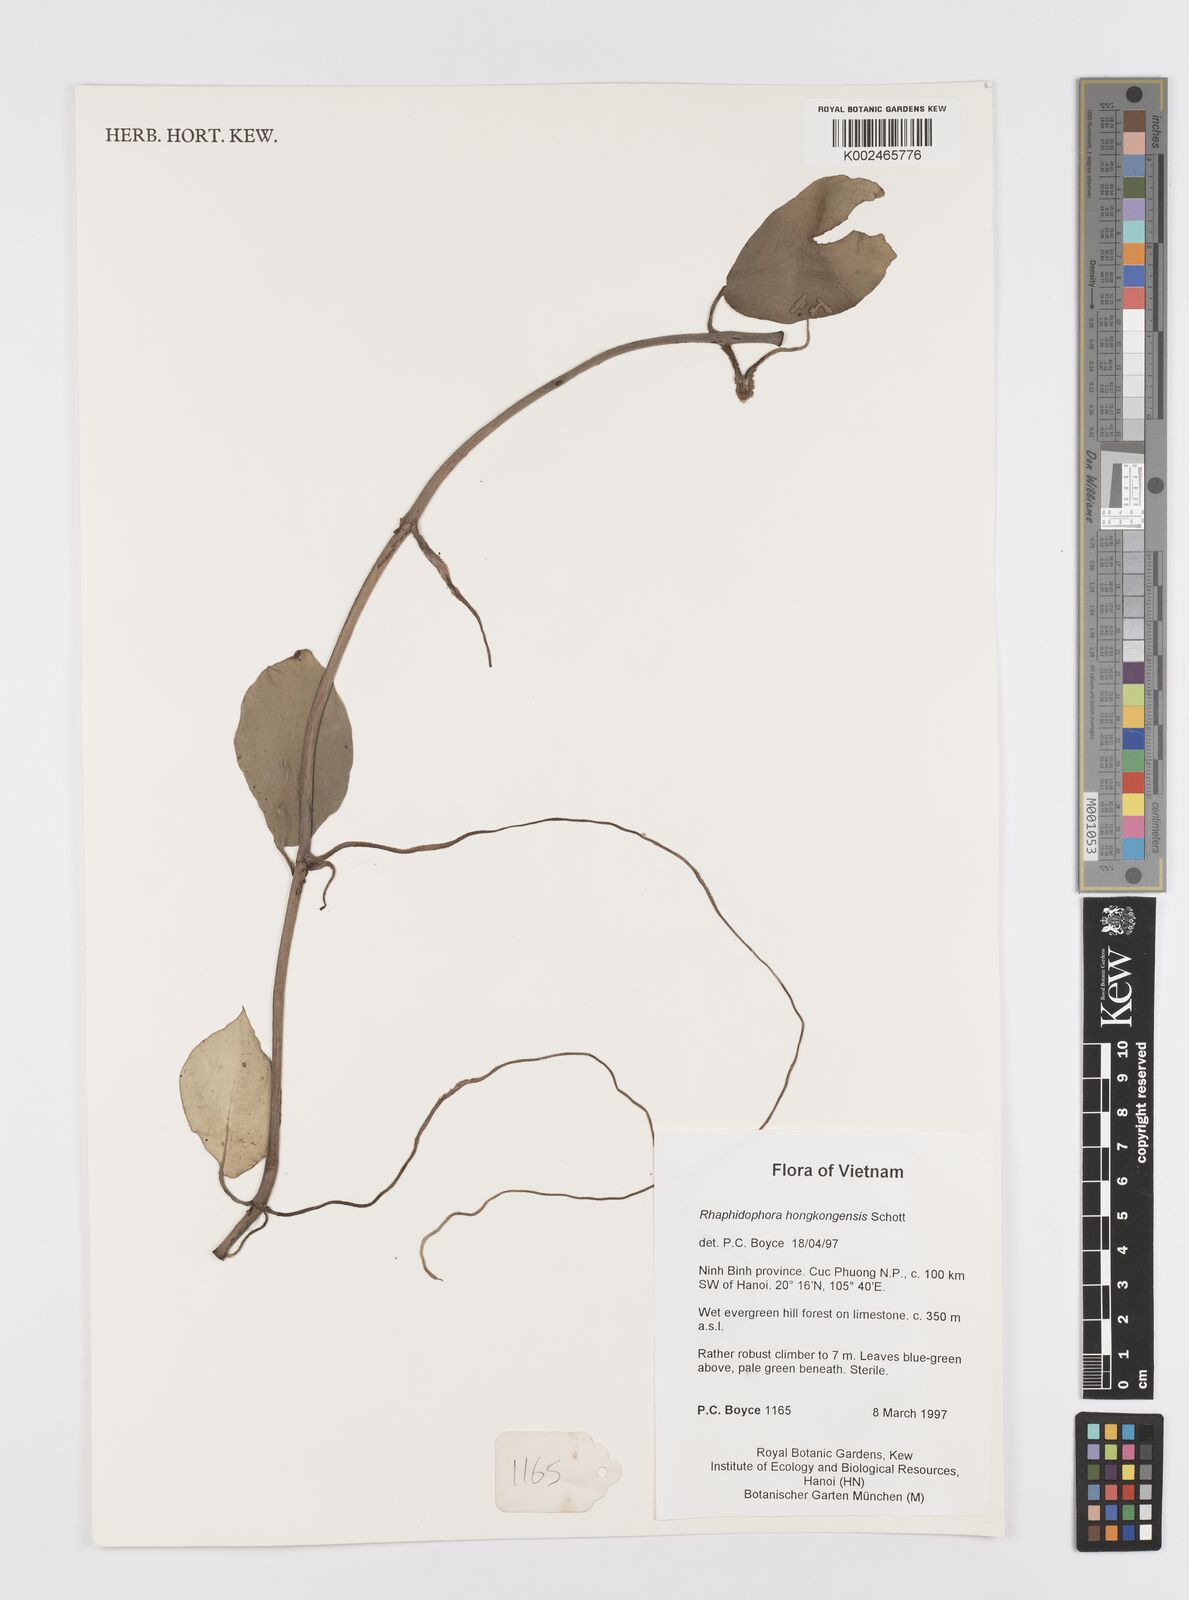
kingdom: Plantae
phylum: Tracheophyta
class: Liliopsida
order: Alismatales
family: Araceae
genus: Rhaphidophora
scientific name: Rhaphidophora
